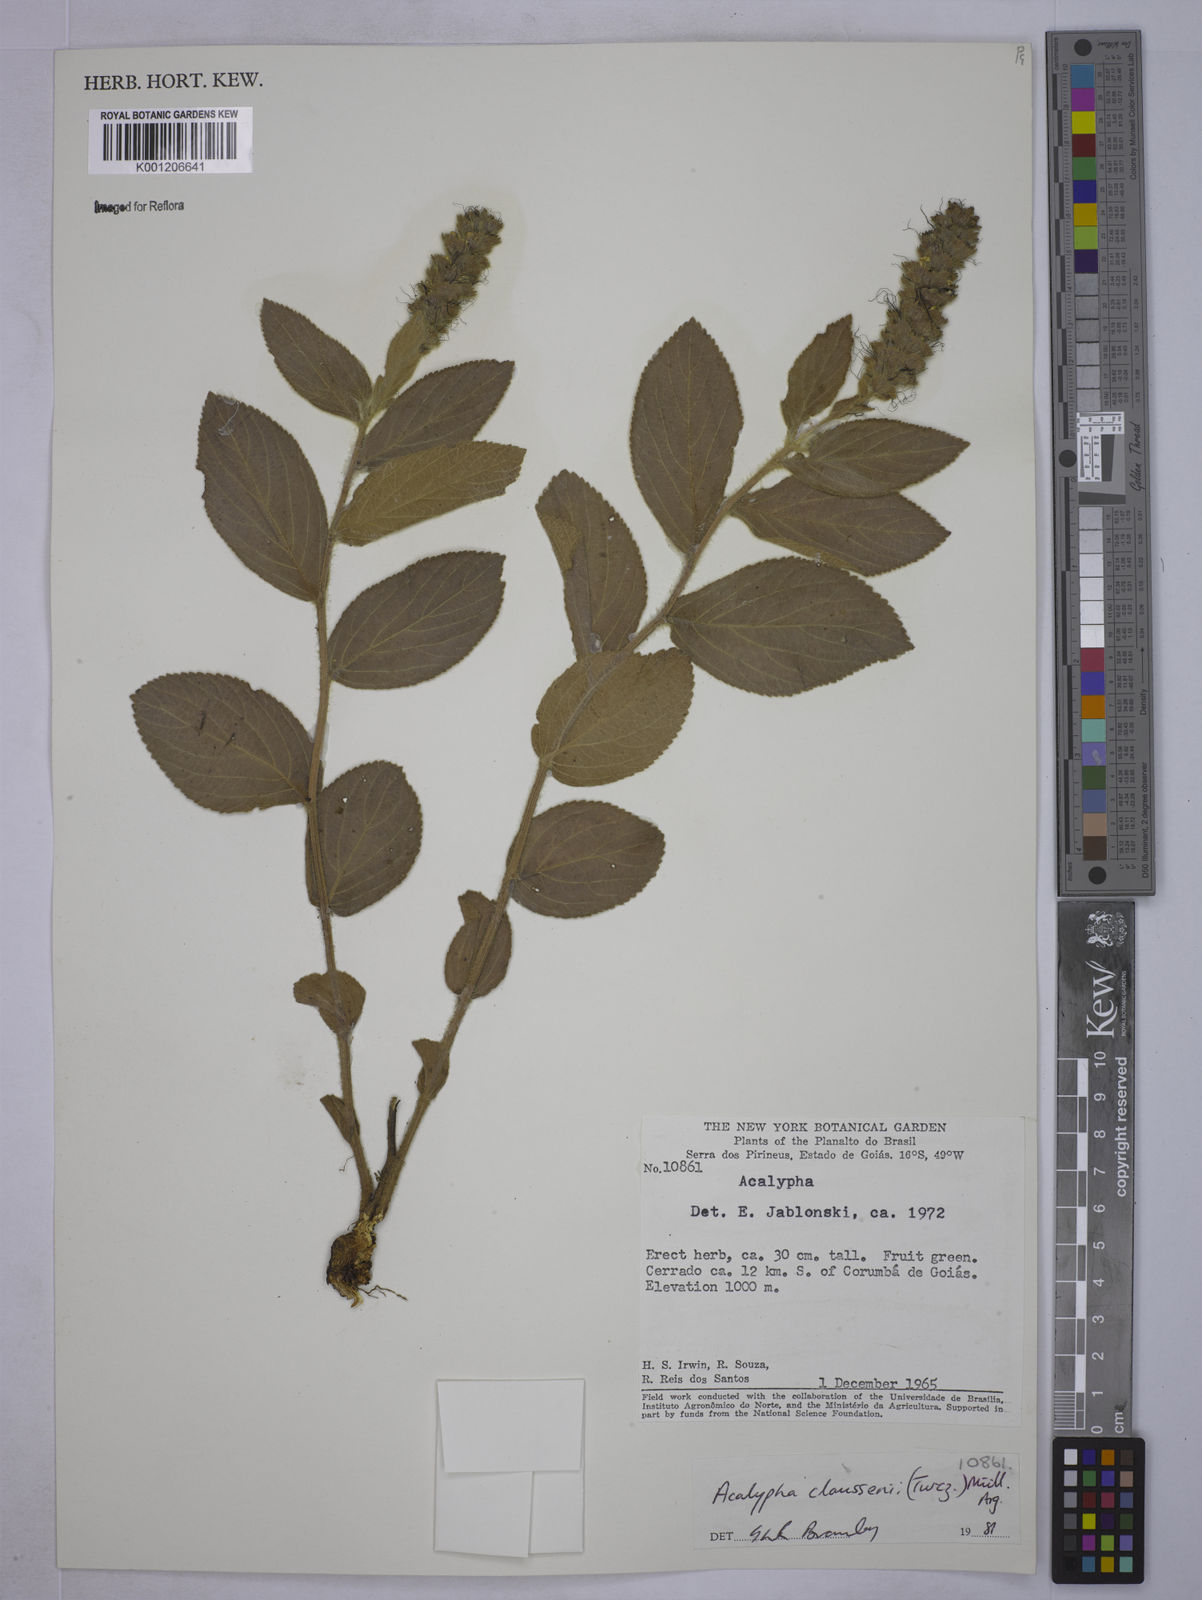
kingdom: Plantae
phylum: Tracheophyta
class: Magnoliopsida
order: Malpighiales
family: Euphorbiaceae
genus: Acalypha
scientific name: Acalypha
